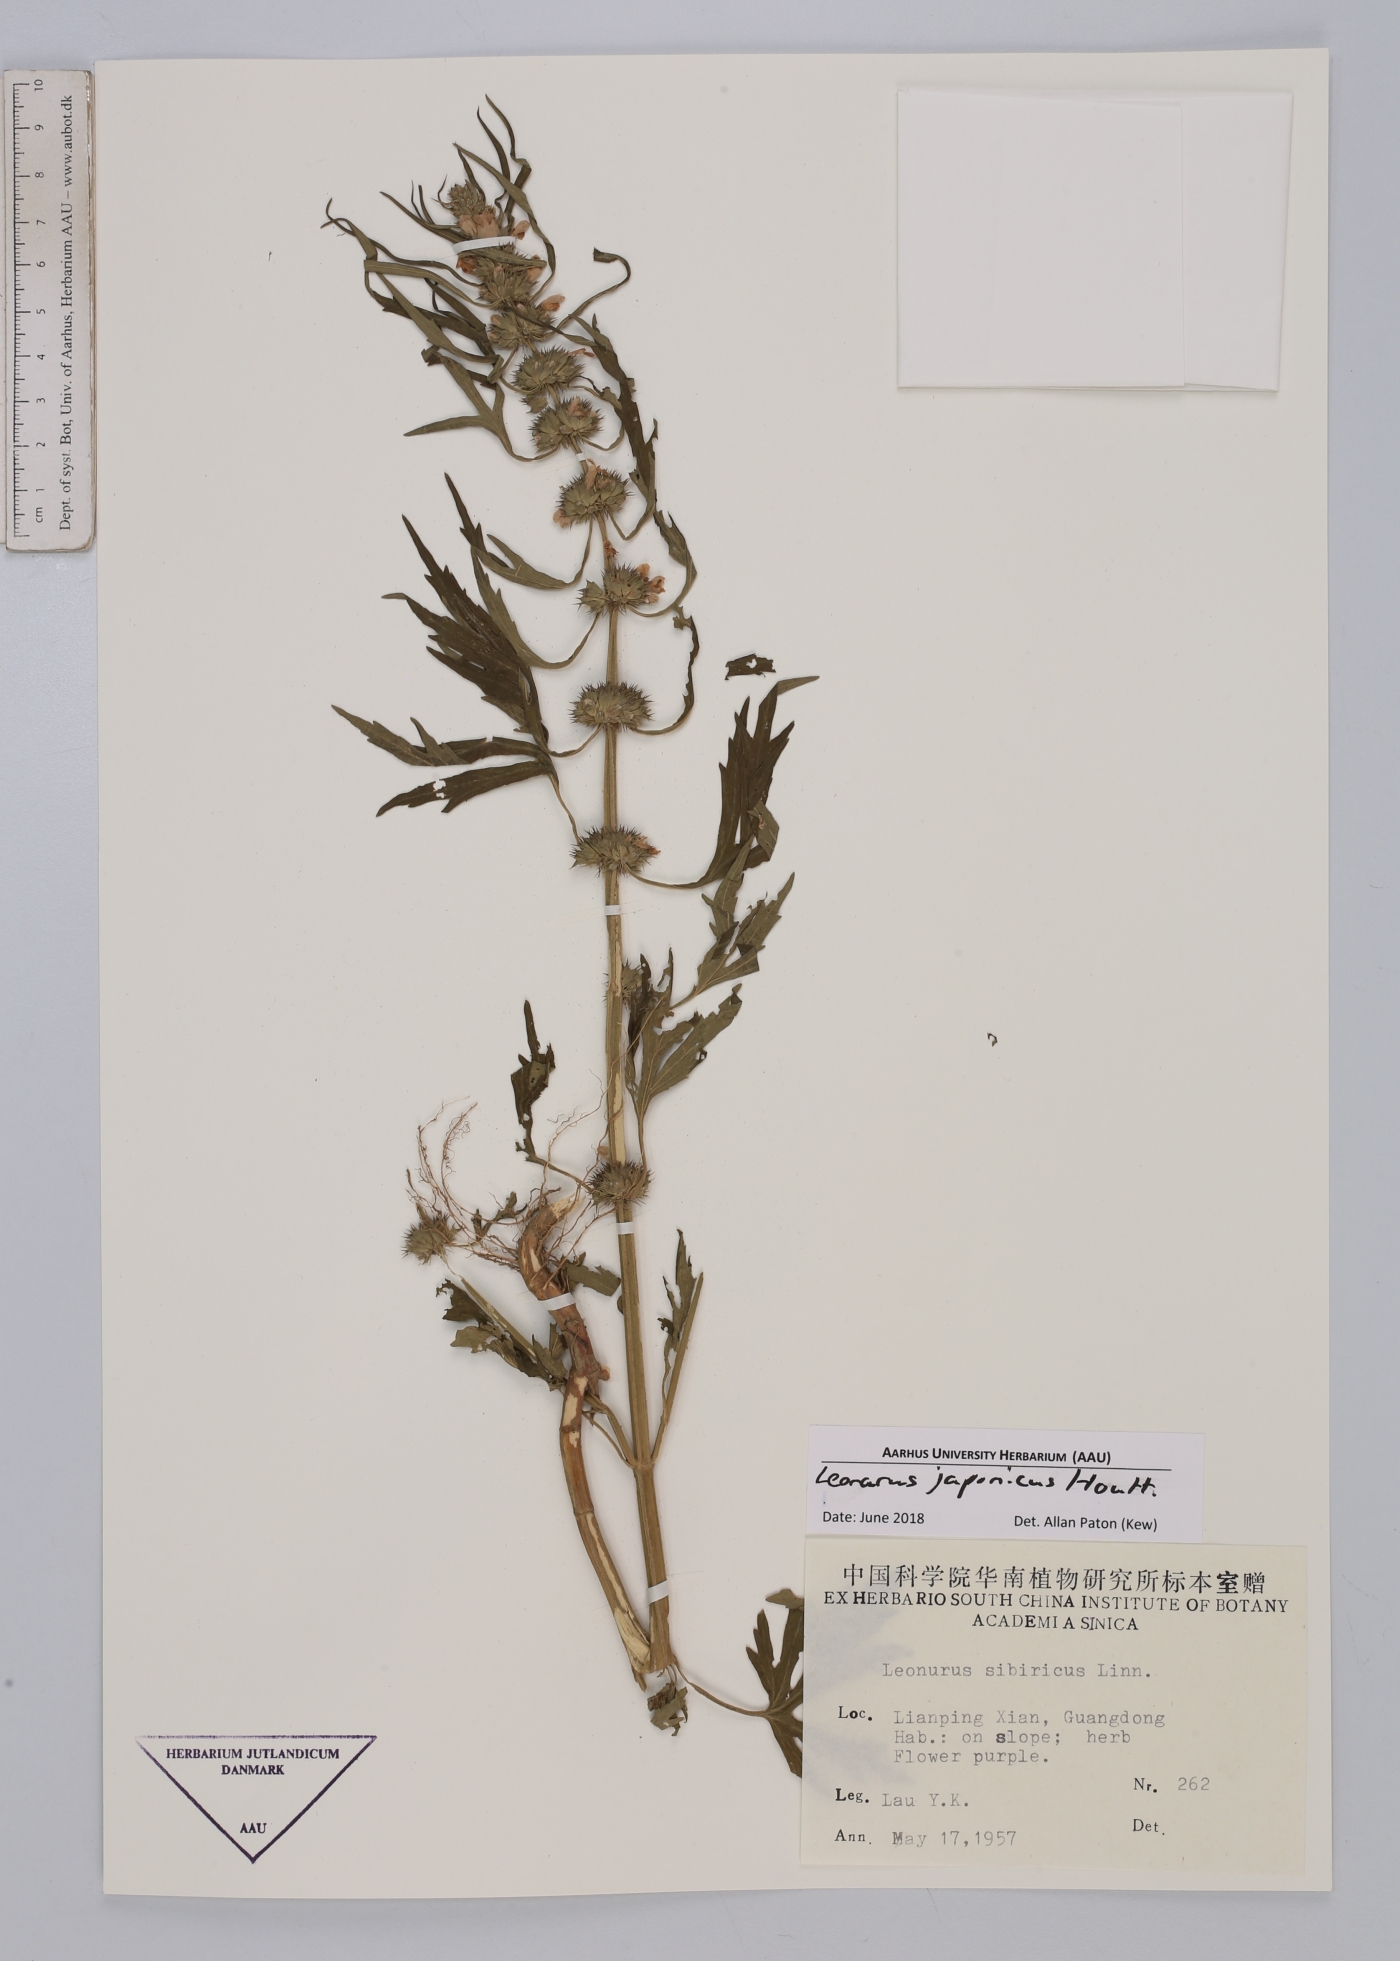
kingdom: Plantae
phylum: Tracheophyta
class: Magnoliopsida
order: Lamiales
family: Lamiaceae
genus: Leonurus
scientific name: Leonurus japonicus
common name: Honeyweed
